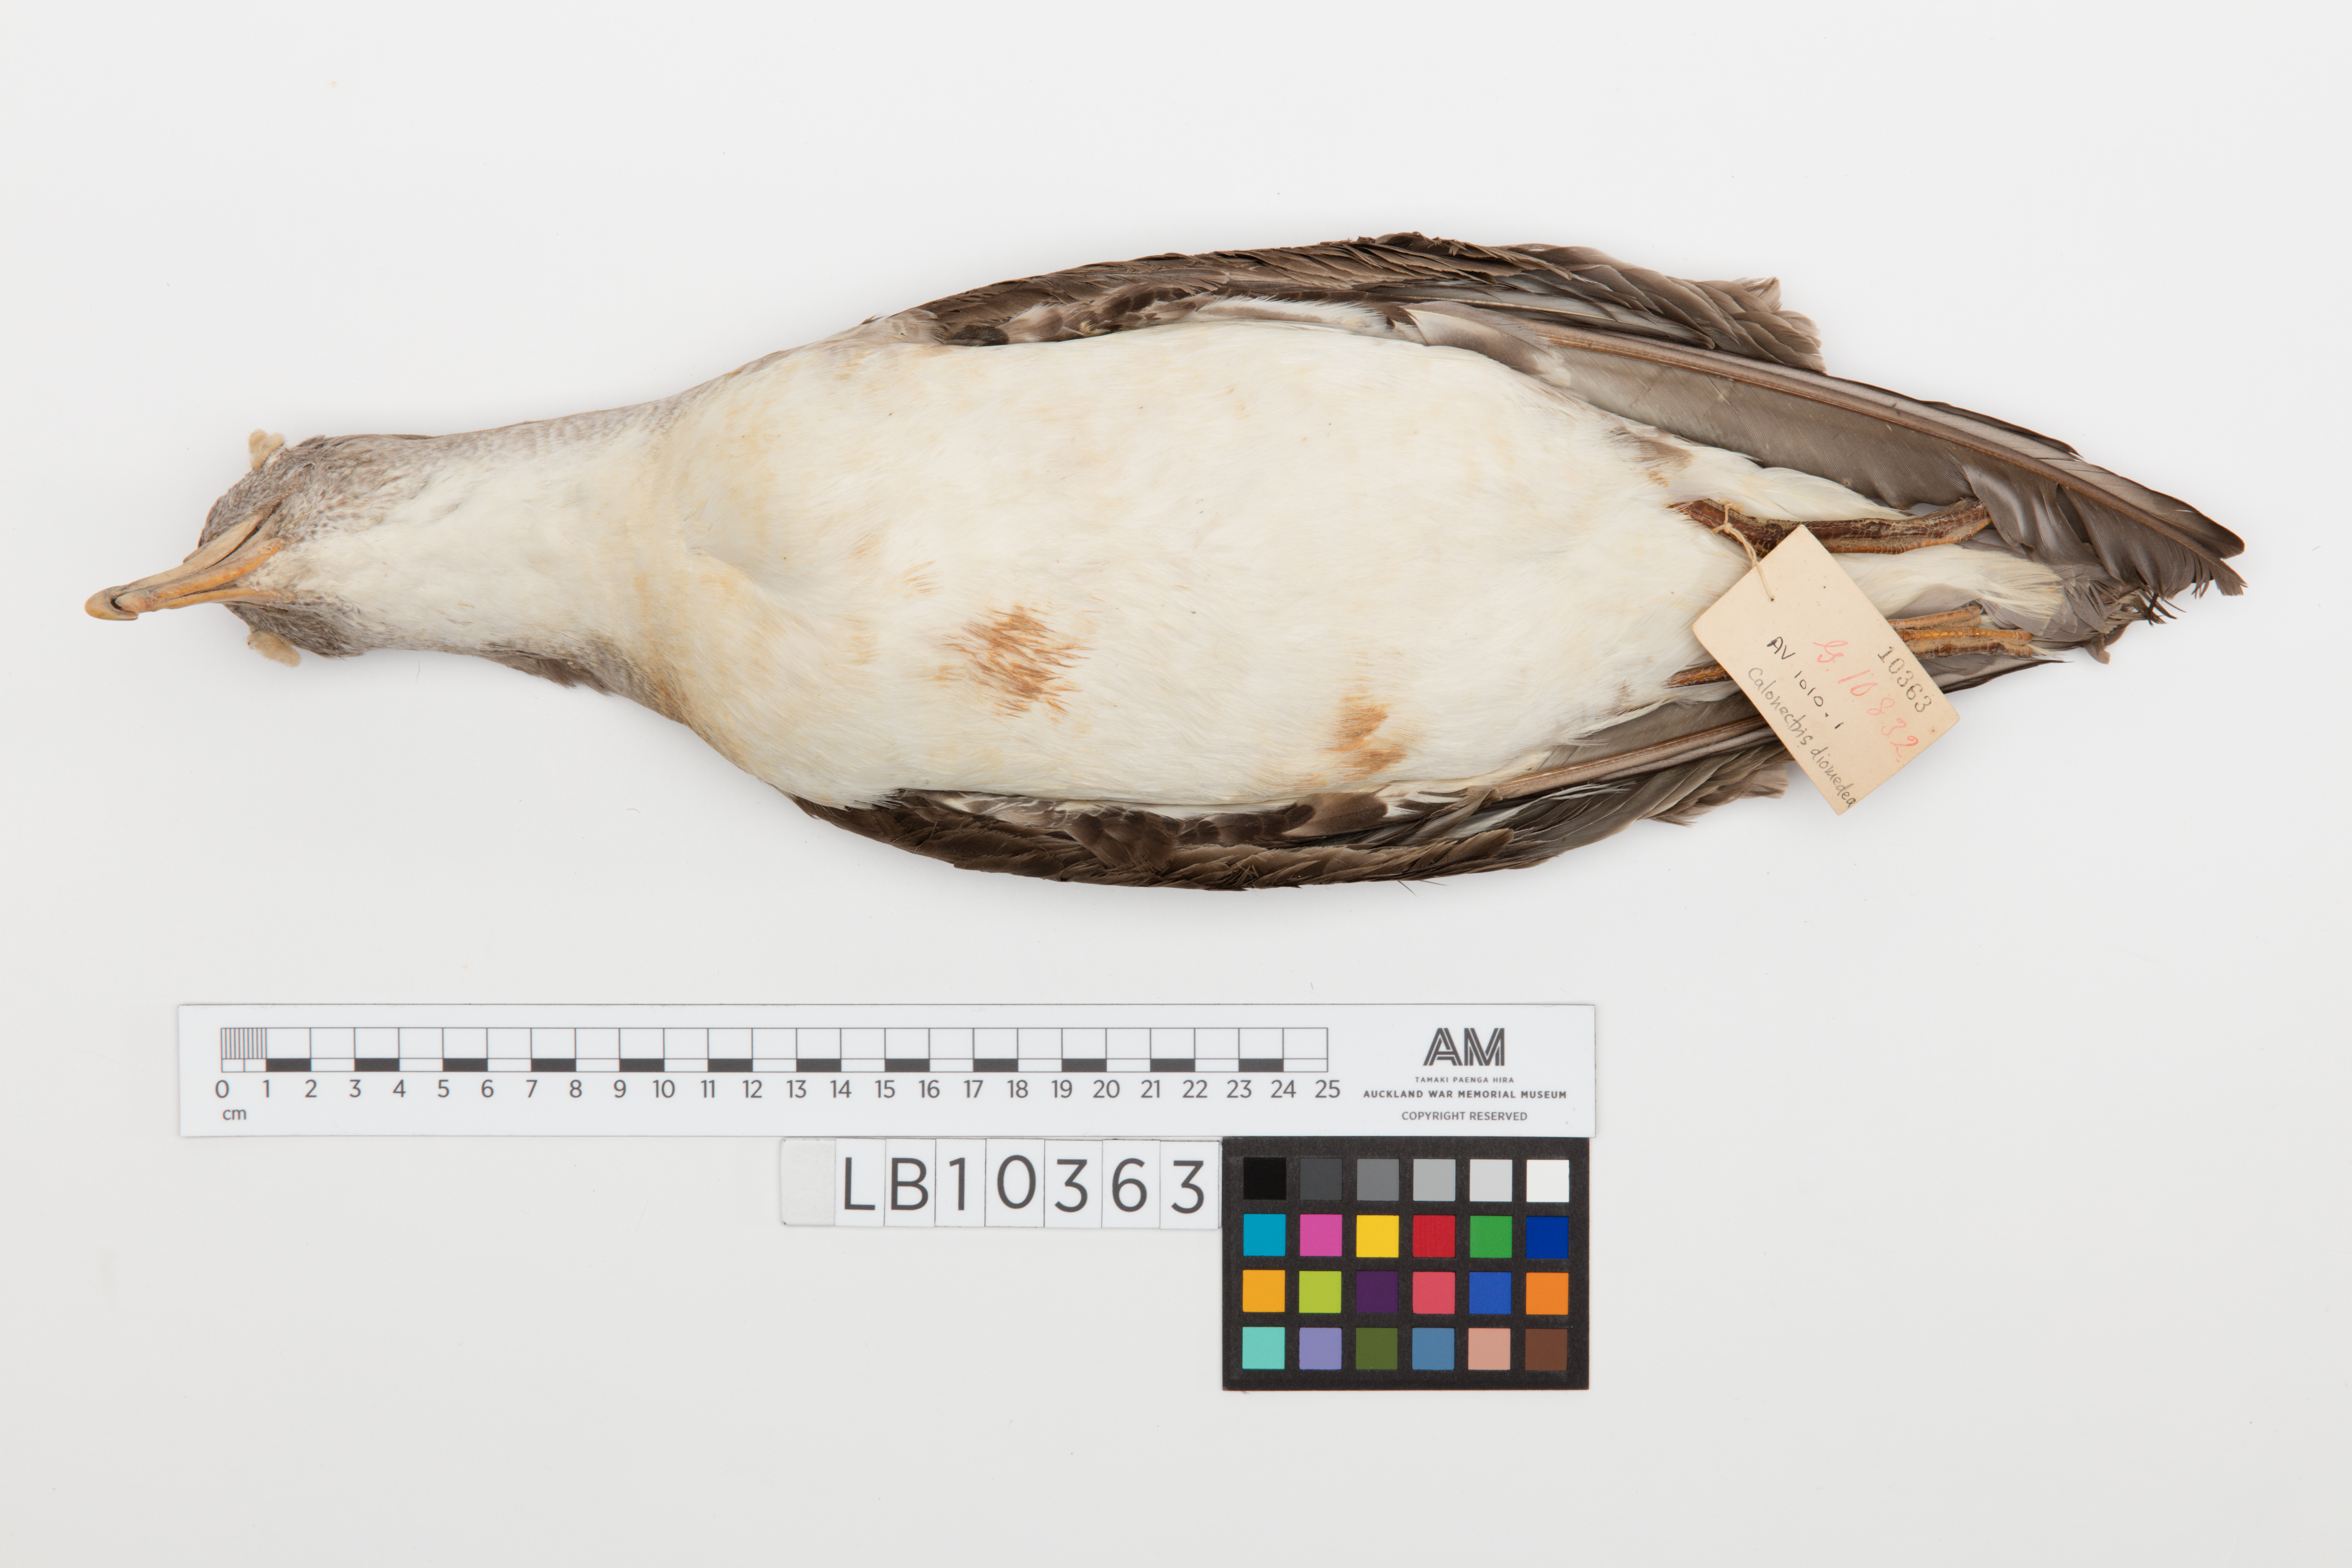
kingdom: Animalia
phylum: Chordata
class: Aves
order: Procellariiformes
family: Procellariidae
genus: Calonectris
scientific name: Calonectris diomedea
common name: Cory's shearwater
